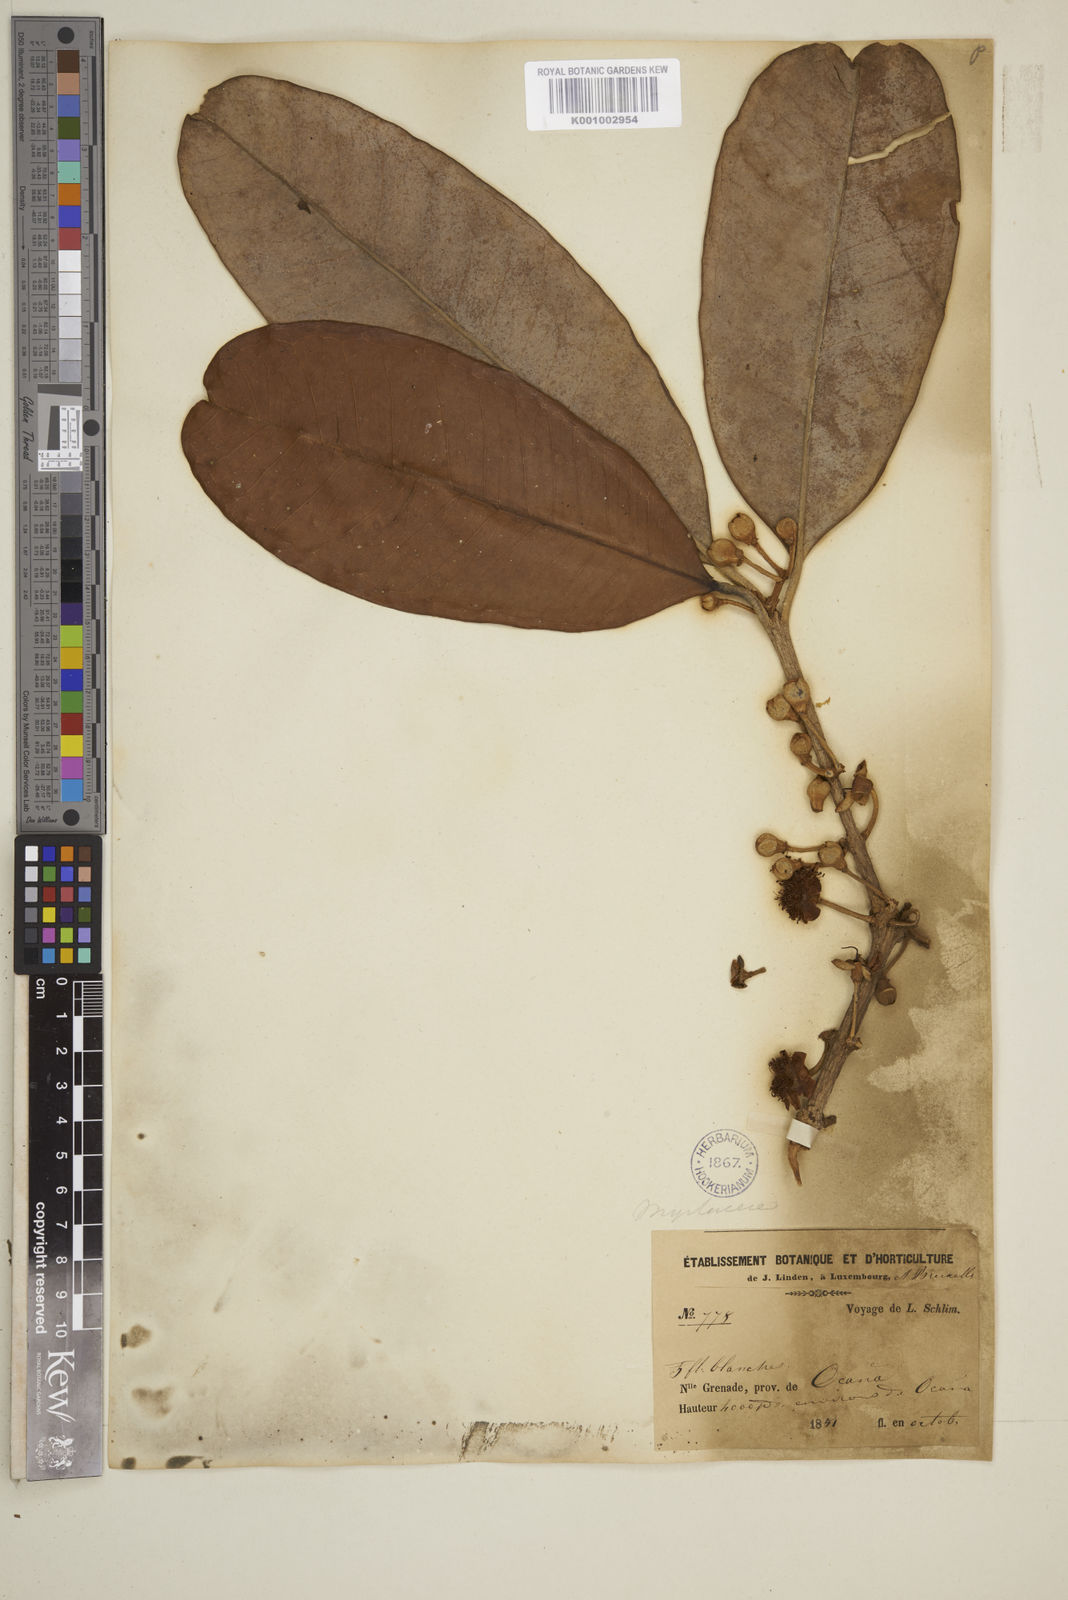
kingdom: Plantae
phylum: Tracheophyta
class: Magnoliopsida
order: Myrtales
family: Myrtaceae
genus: Syzygium
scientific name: Syzygium maingayi
